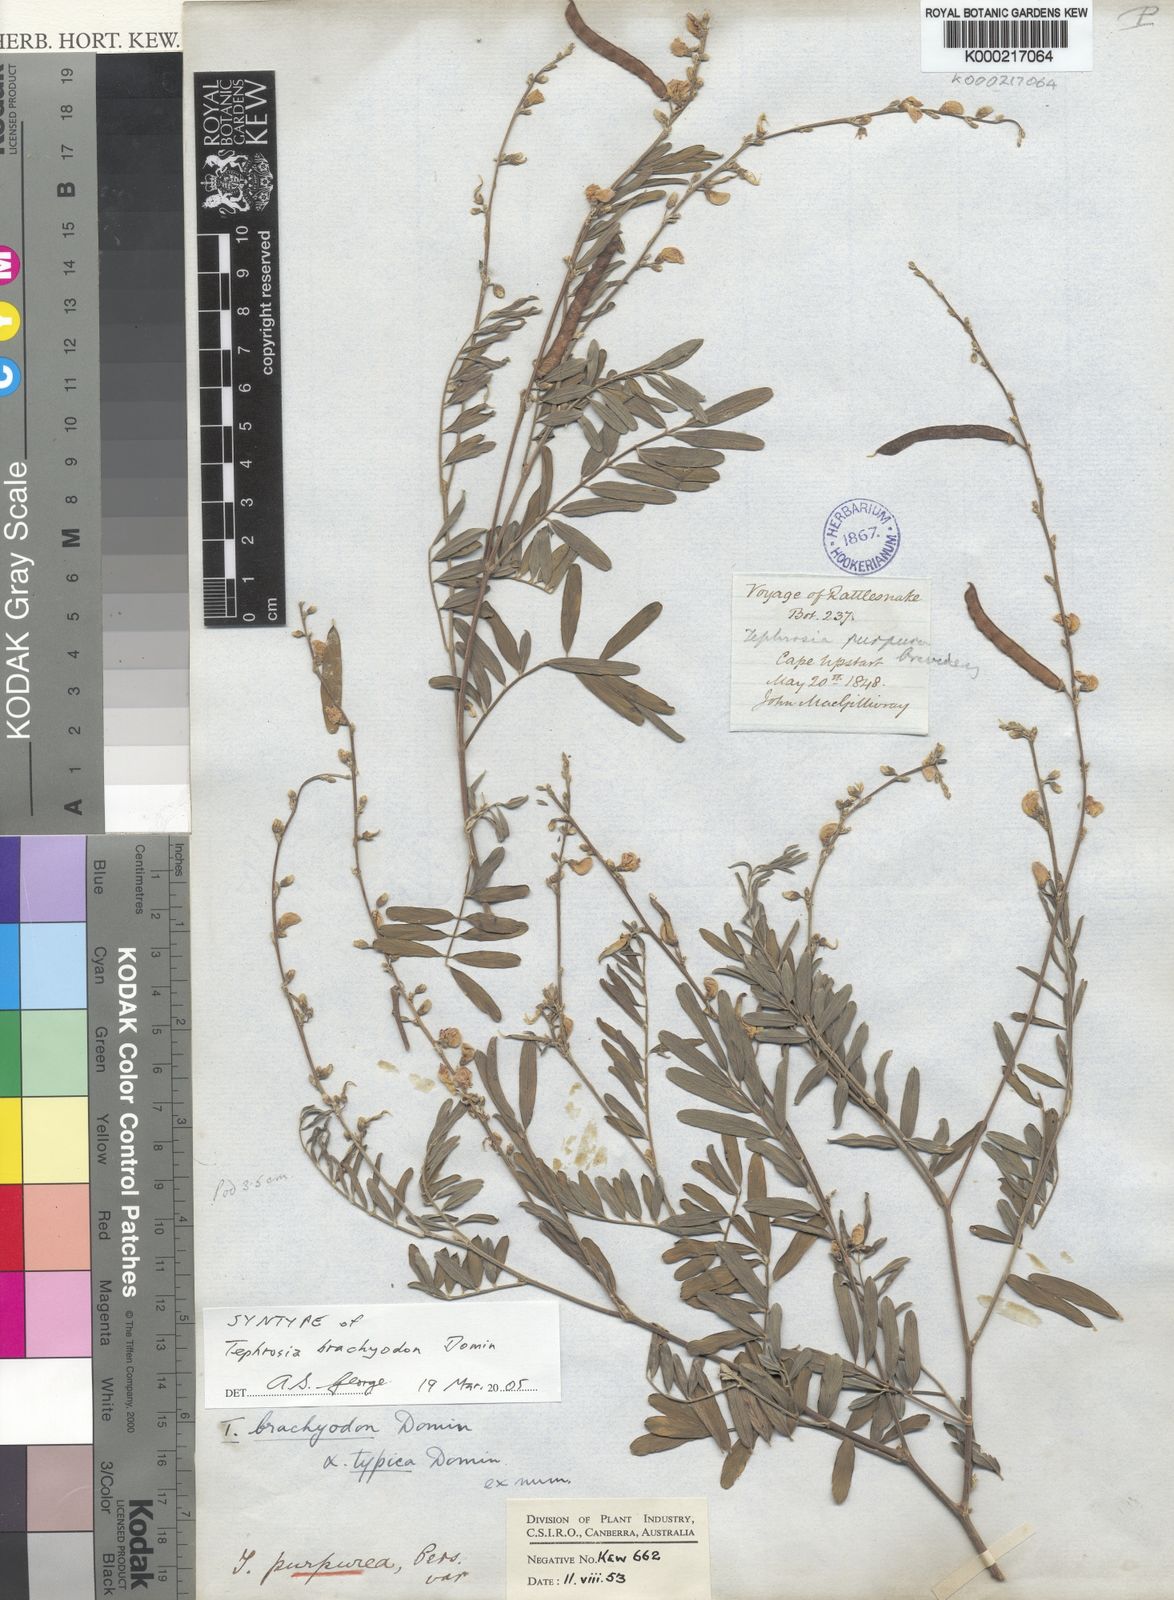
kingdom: Plantae
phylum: Tracheophyta
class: Magnoliopsida
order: Fabales
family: Fabaceae
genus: Tephrosia
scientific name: Tephrosia brachyodon
